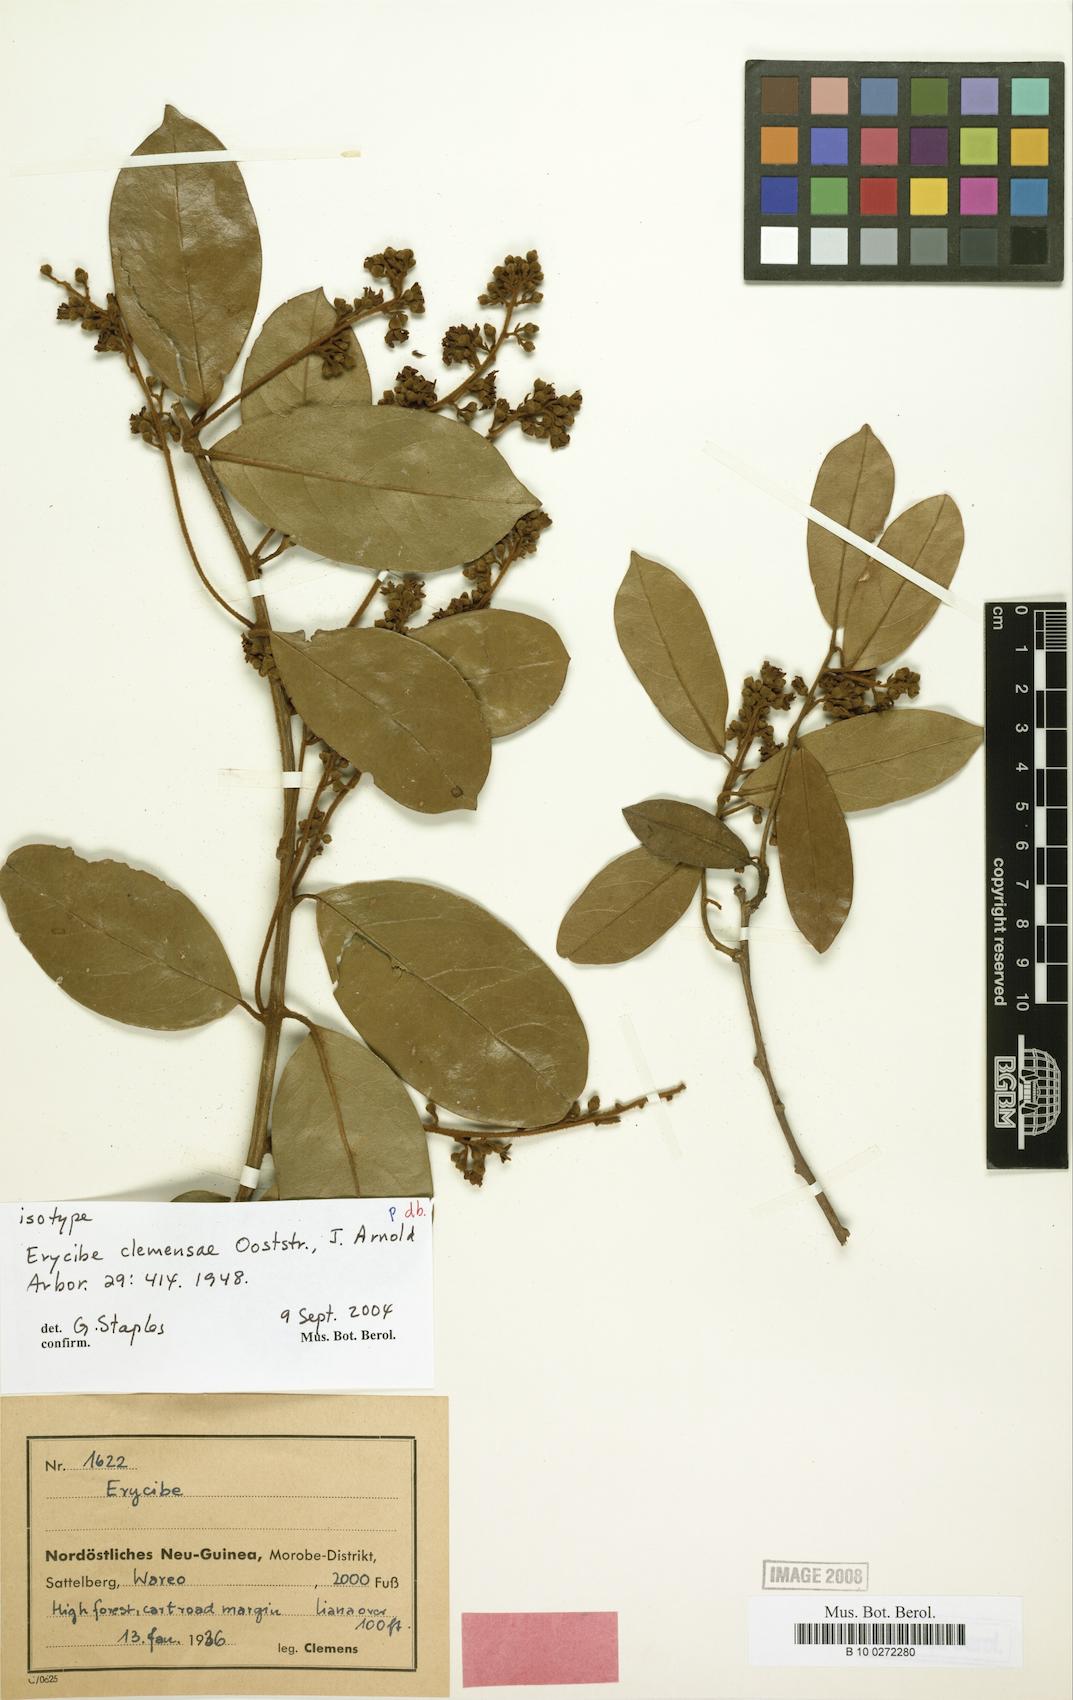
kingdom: Plantae
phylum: Tracheophyta
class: Magnoliopsida
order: Solanales
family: Convolvulaceae
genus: Erycibe
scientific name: Erycibe clemensae
